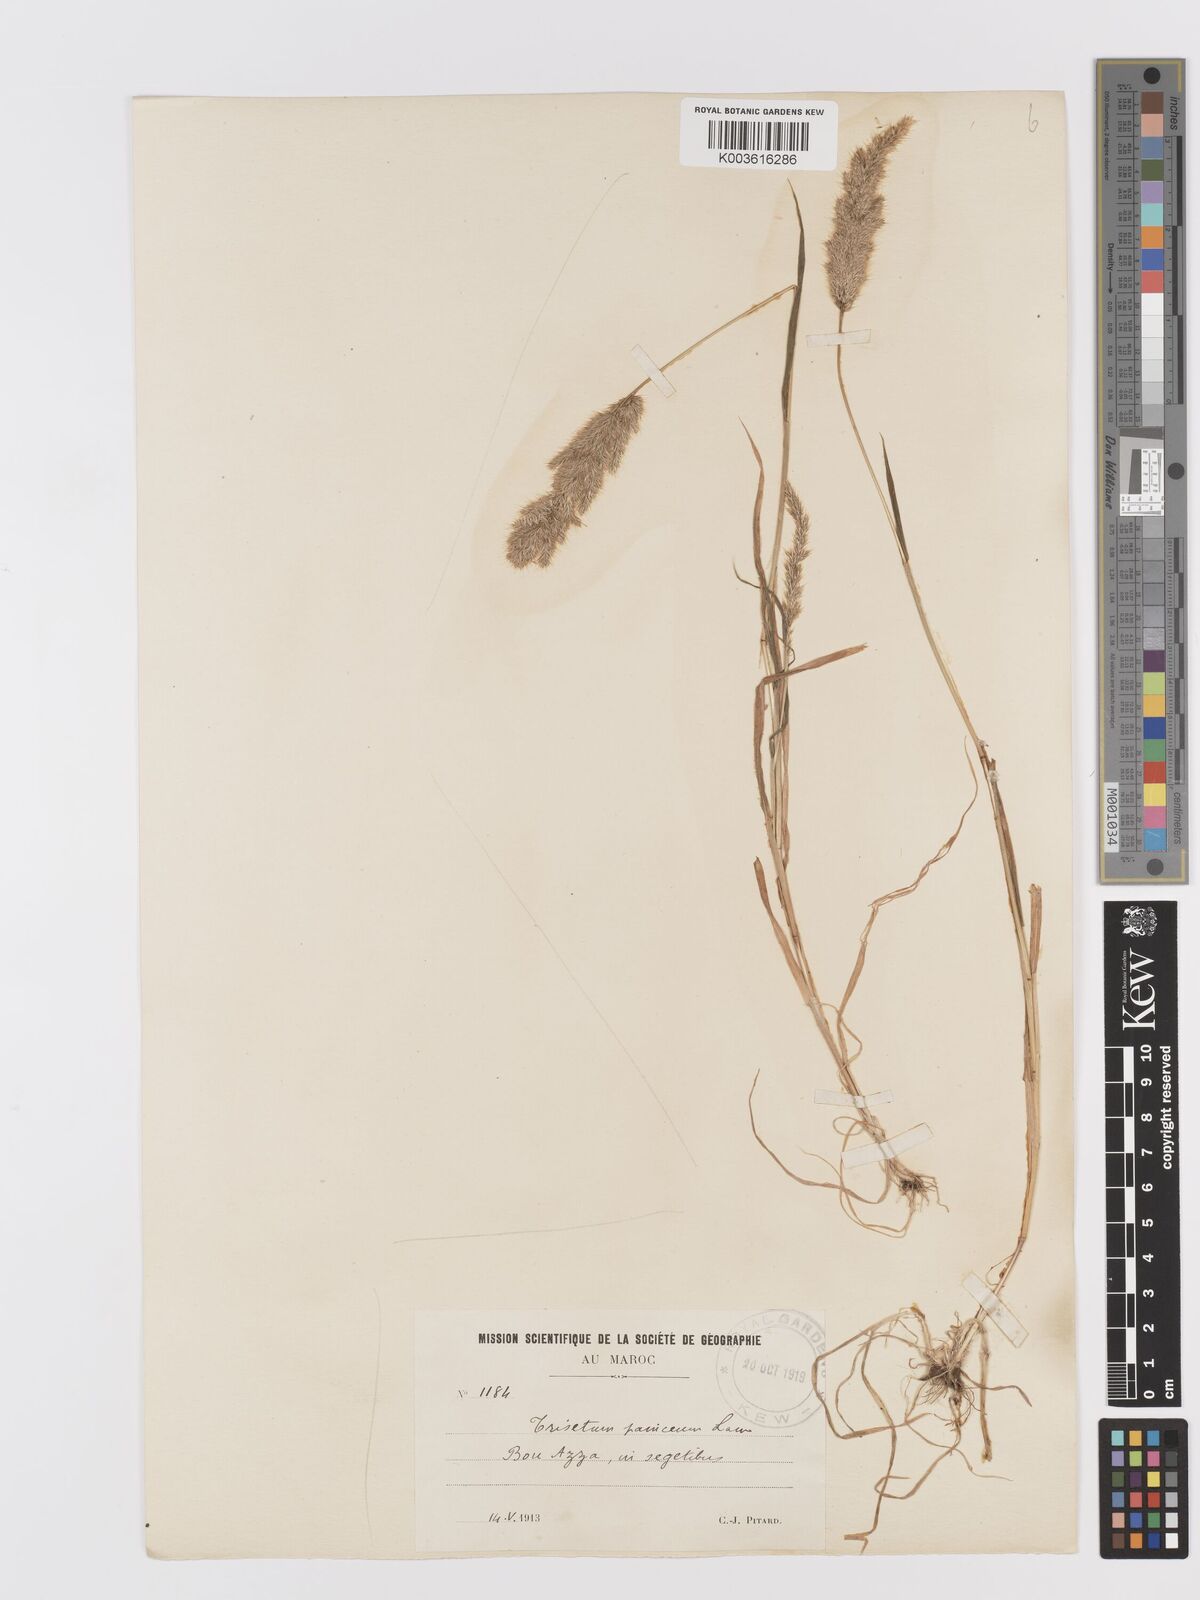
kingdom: Plantae
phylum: Tracheophyta
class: Liliopsida
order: Poales
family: Poaceae
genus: Trisetaria
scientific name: Trisetaria panicea
